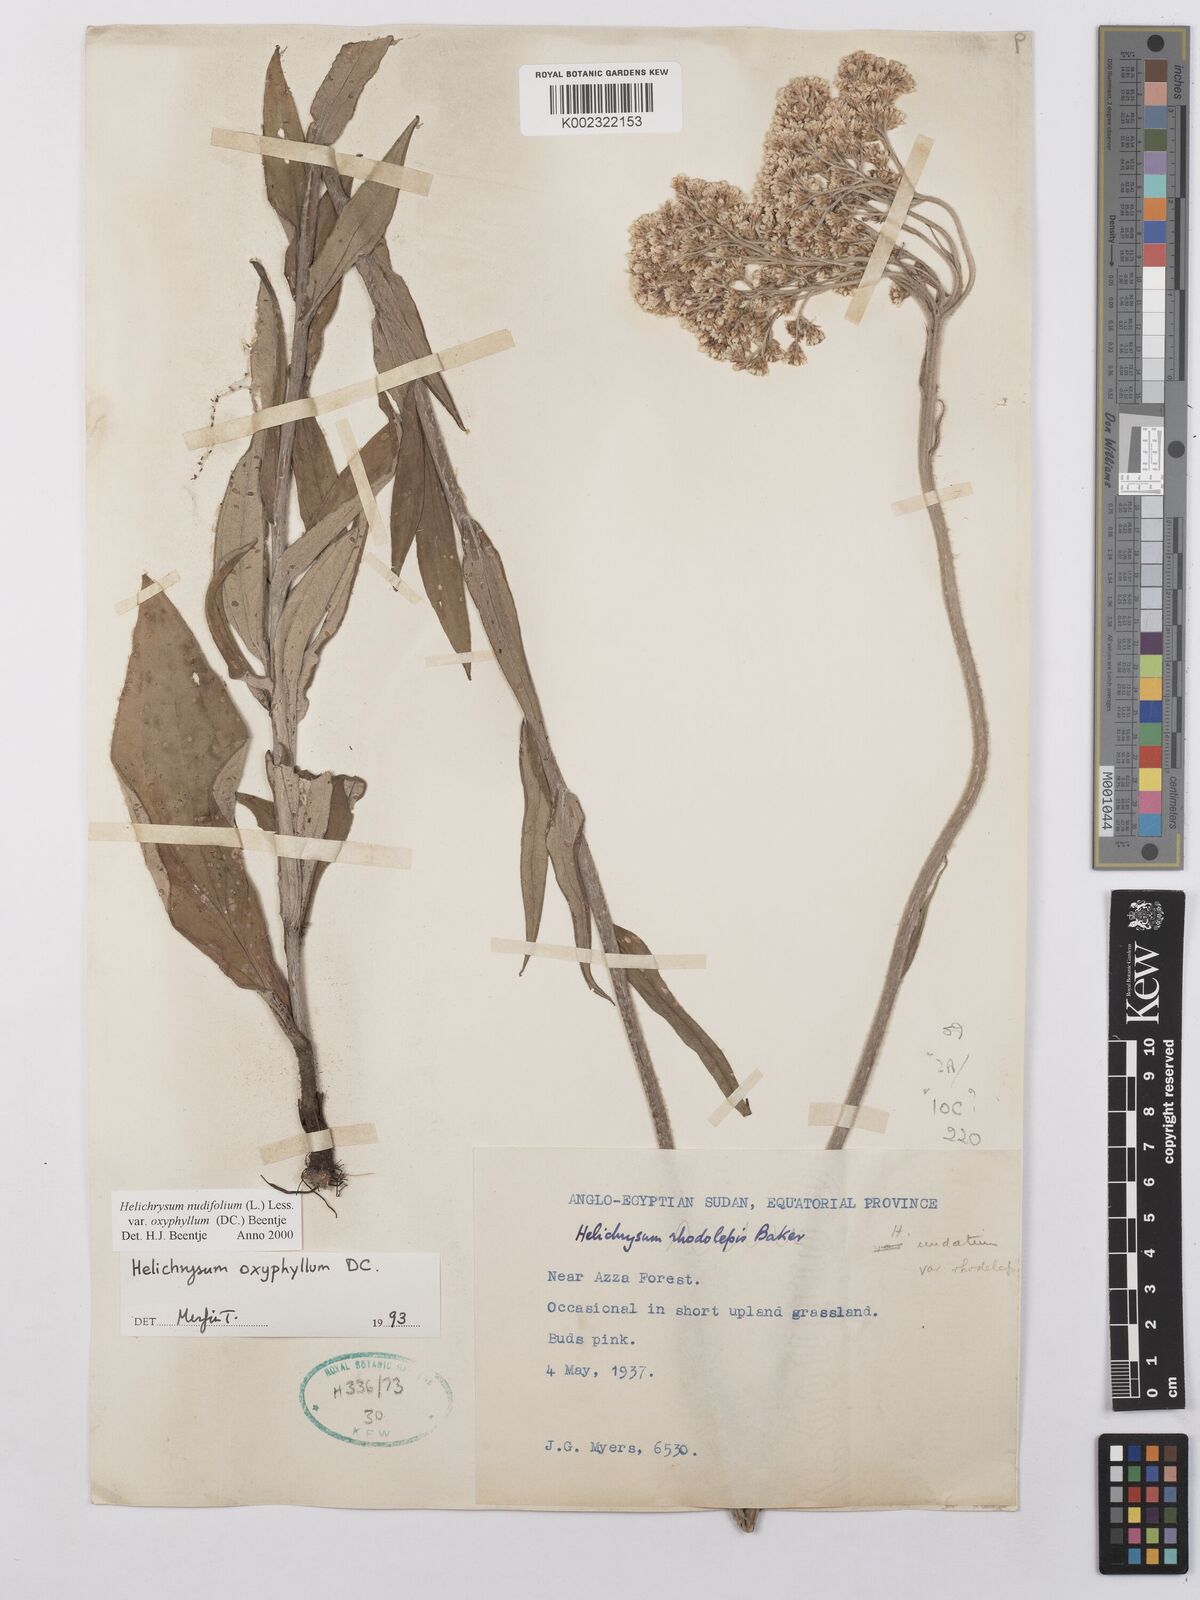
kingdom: Plantae
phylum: Tracheophyta
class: Magnoliopsida
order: Asterales
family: Asteraceae
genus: Helichrysum
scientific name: Helichrysum nudifolium
